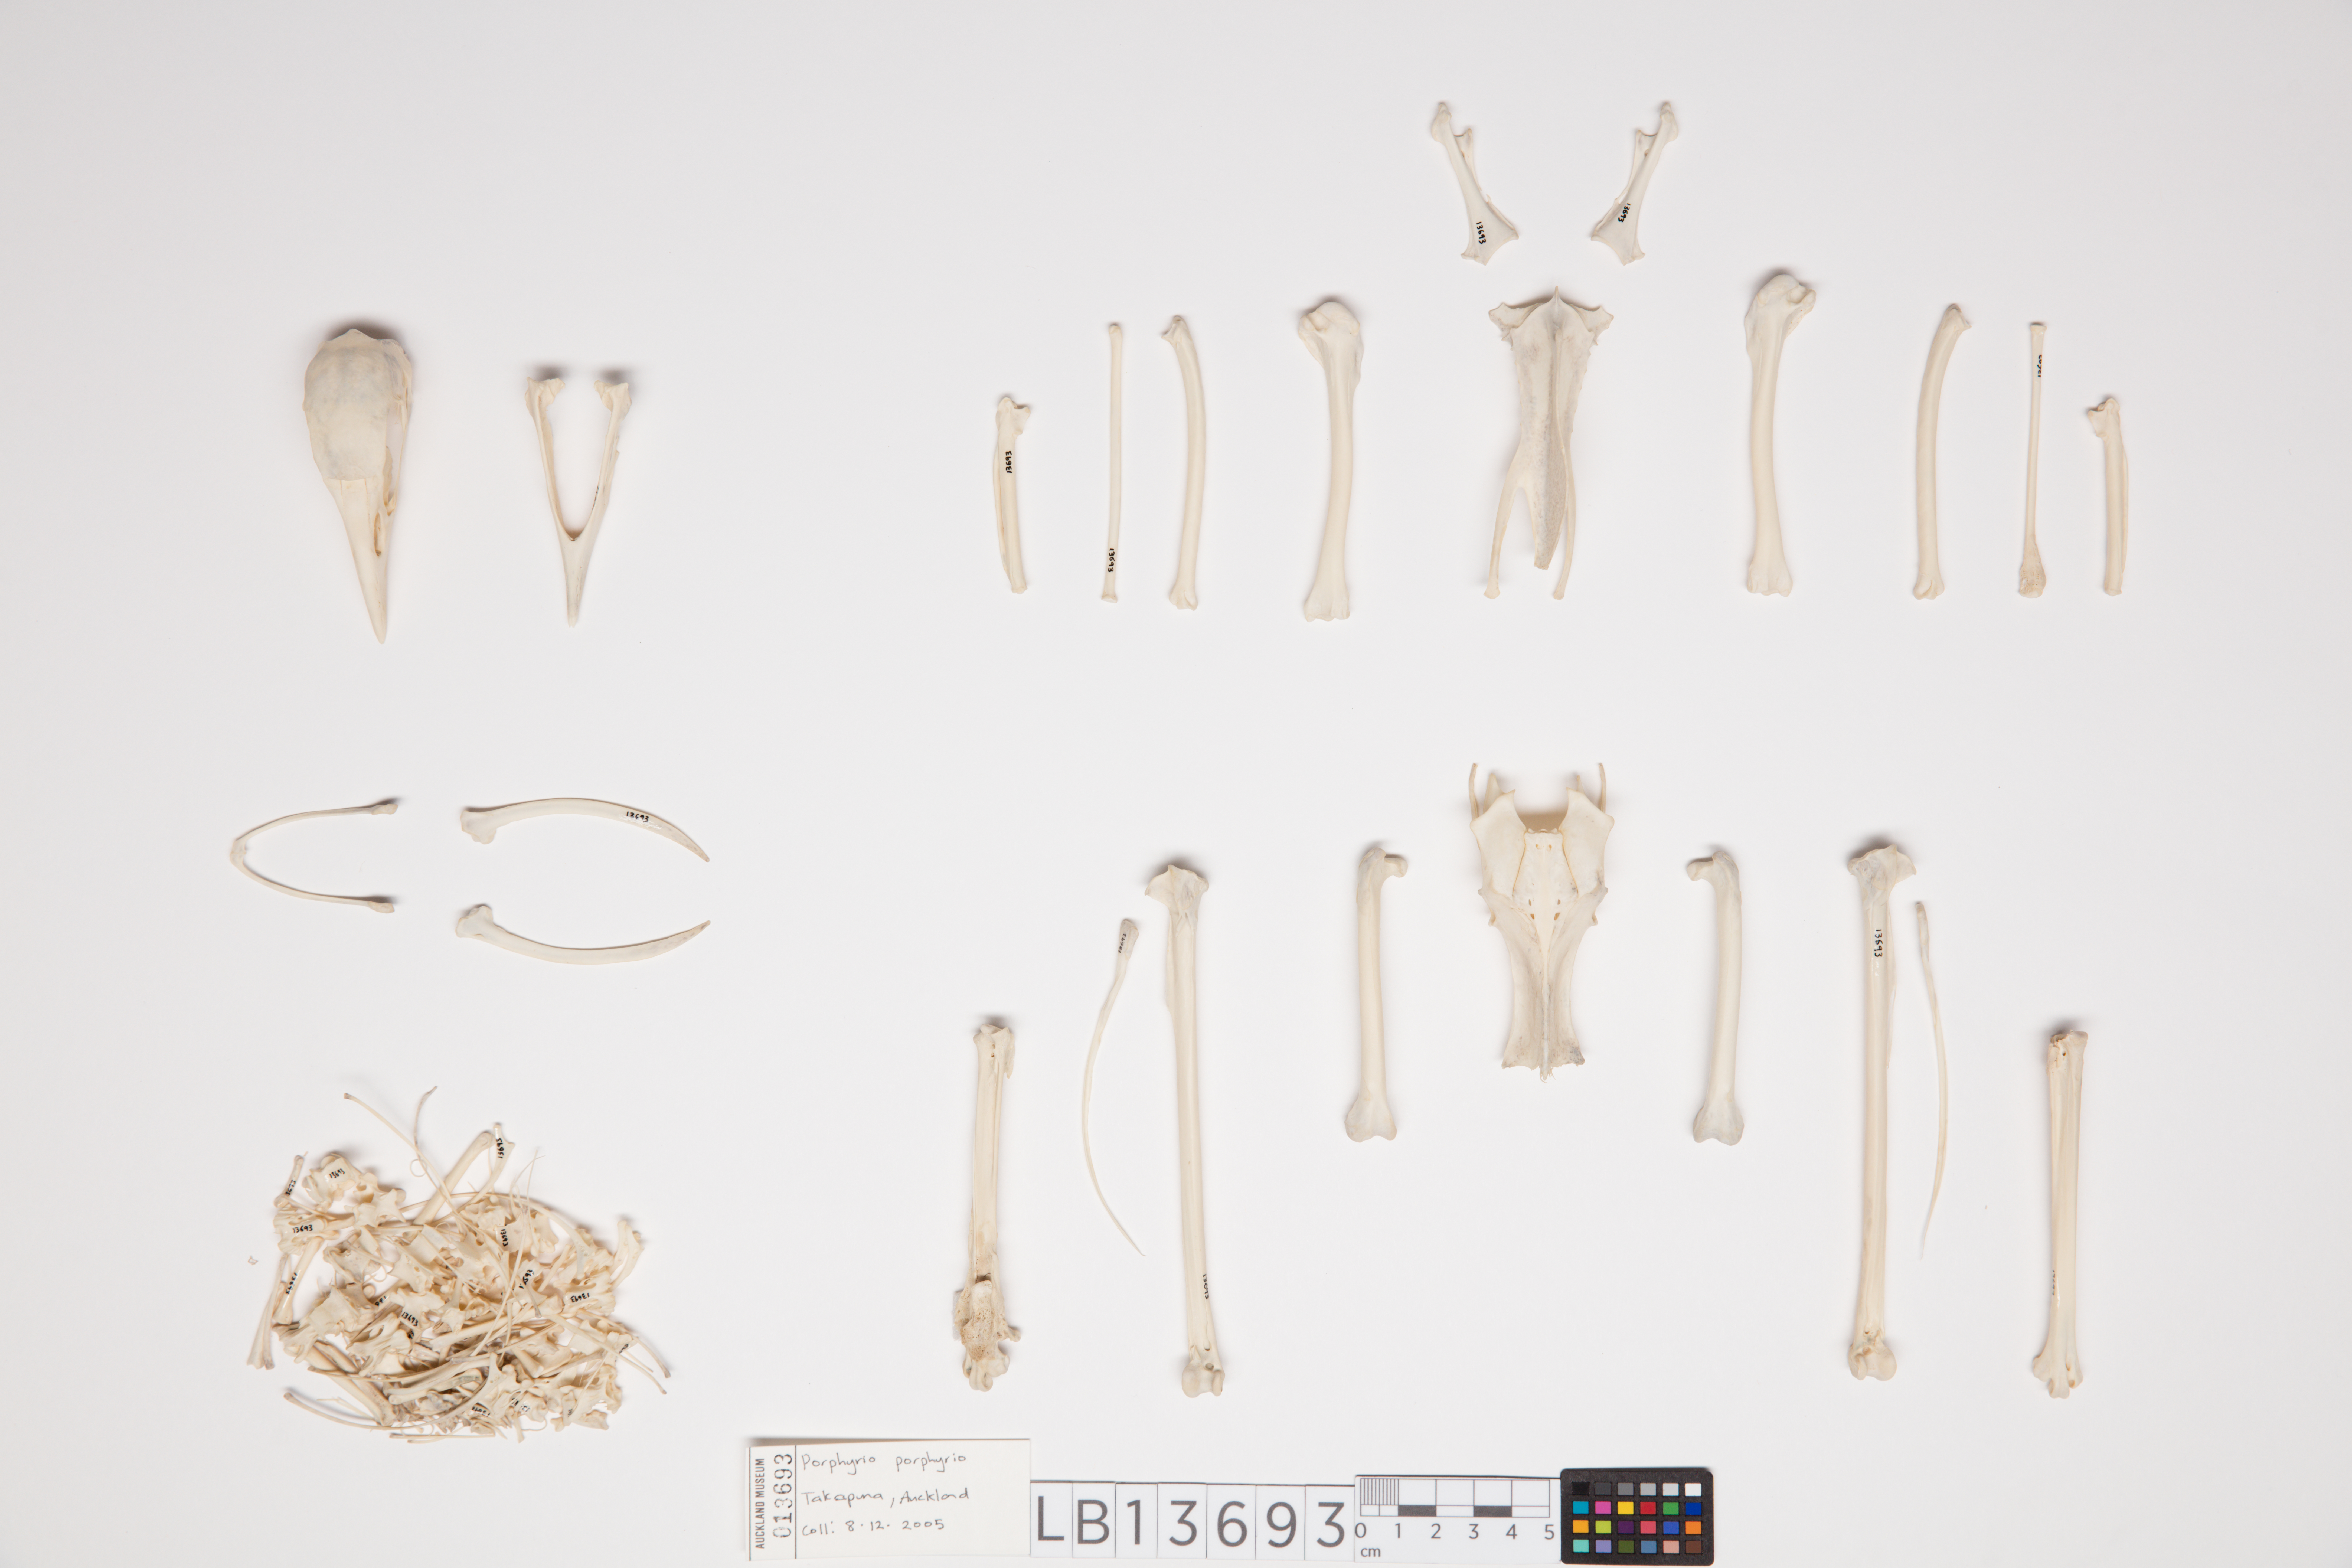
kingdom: Animalia
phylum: Chordata
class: Aves
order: Gruiformes
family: Rallidae
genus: Porphyrio
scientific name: Porphyrio melanotus
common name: Australasian swamphen
